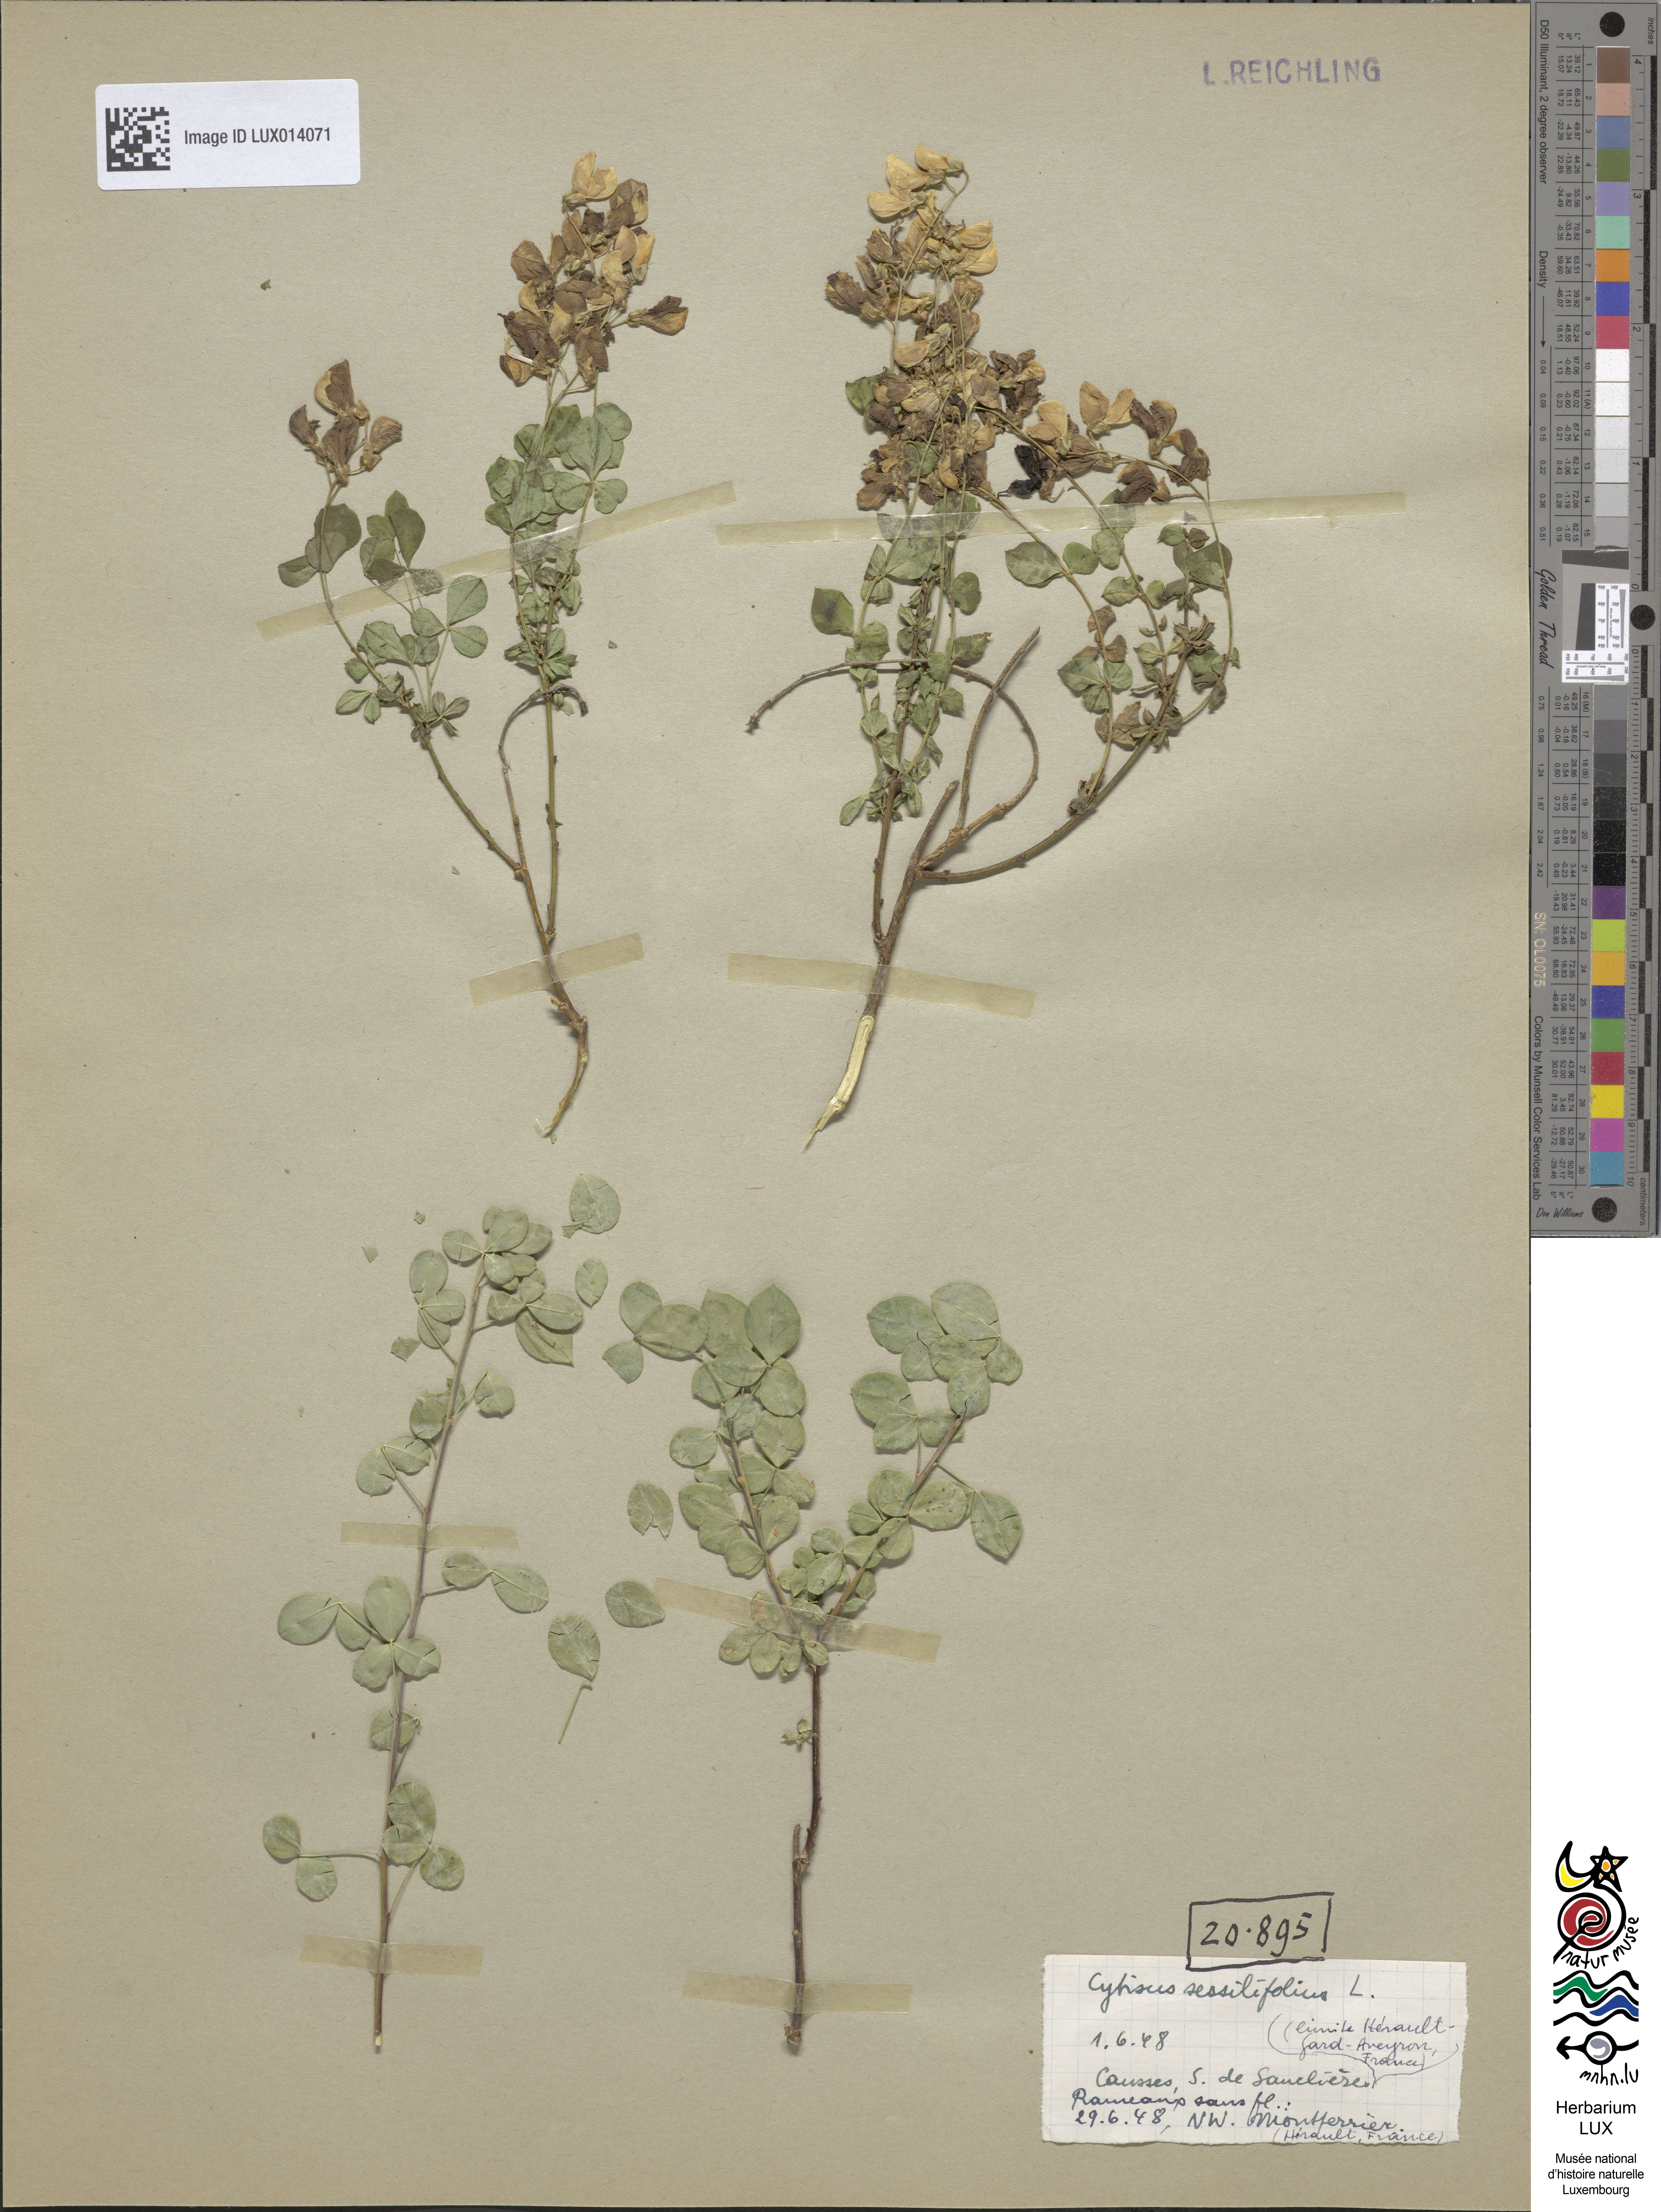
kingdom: Plantae
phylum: Tracheophyta
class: Magnoliopsida
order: Fabales
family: Fabaceae
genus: Cytisophyllum
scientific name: Cytisophyllum sessilifolium
